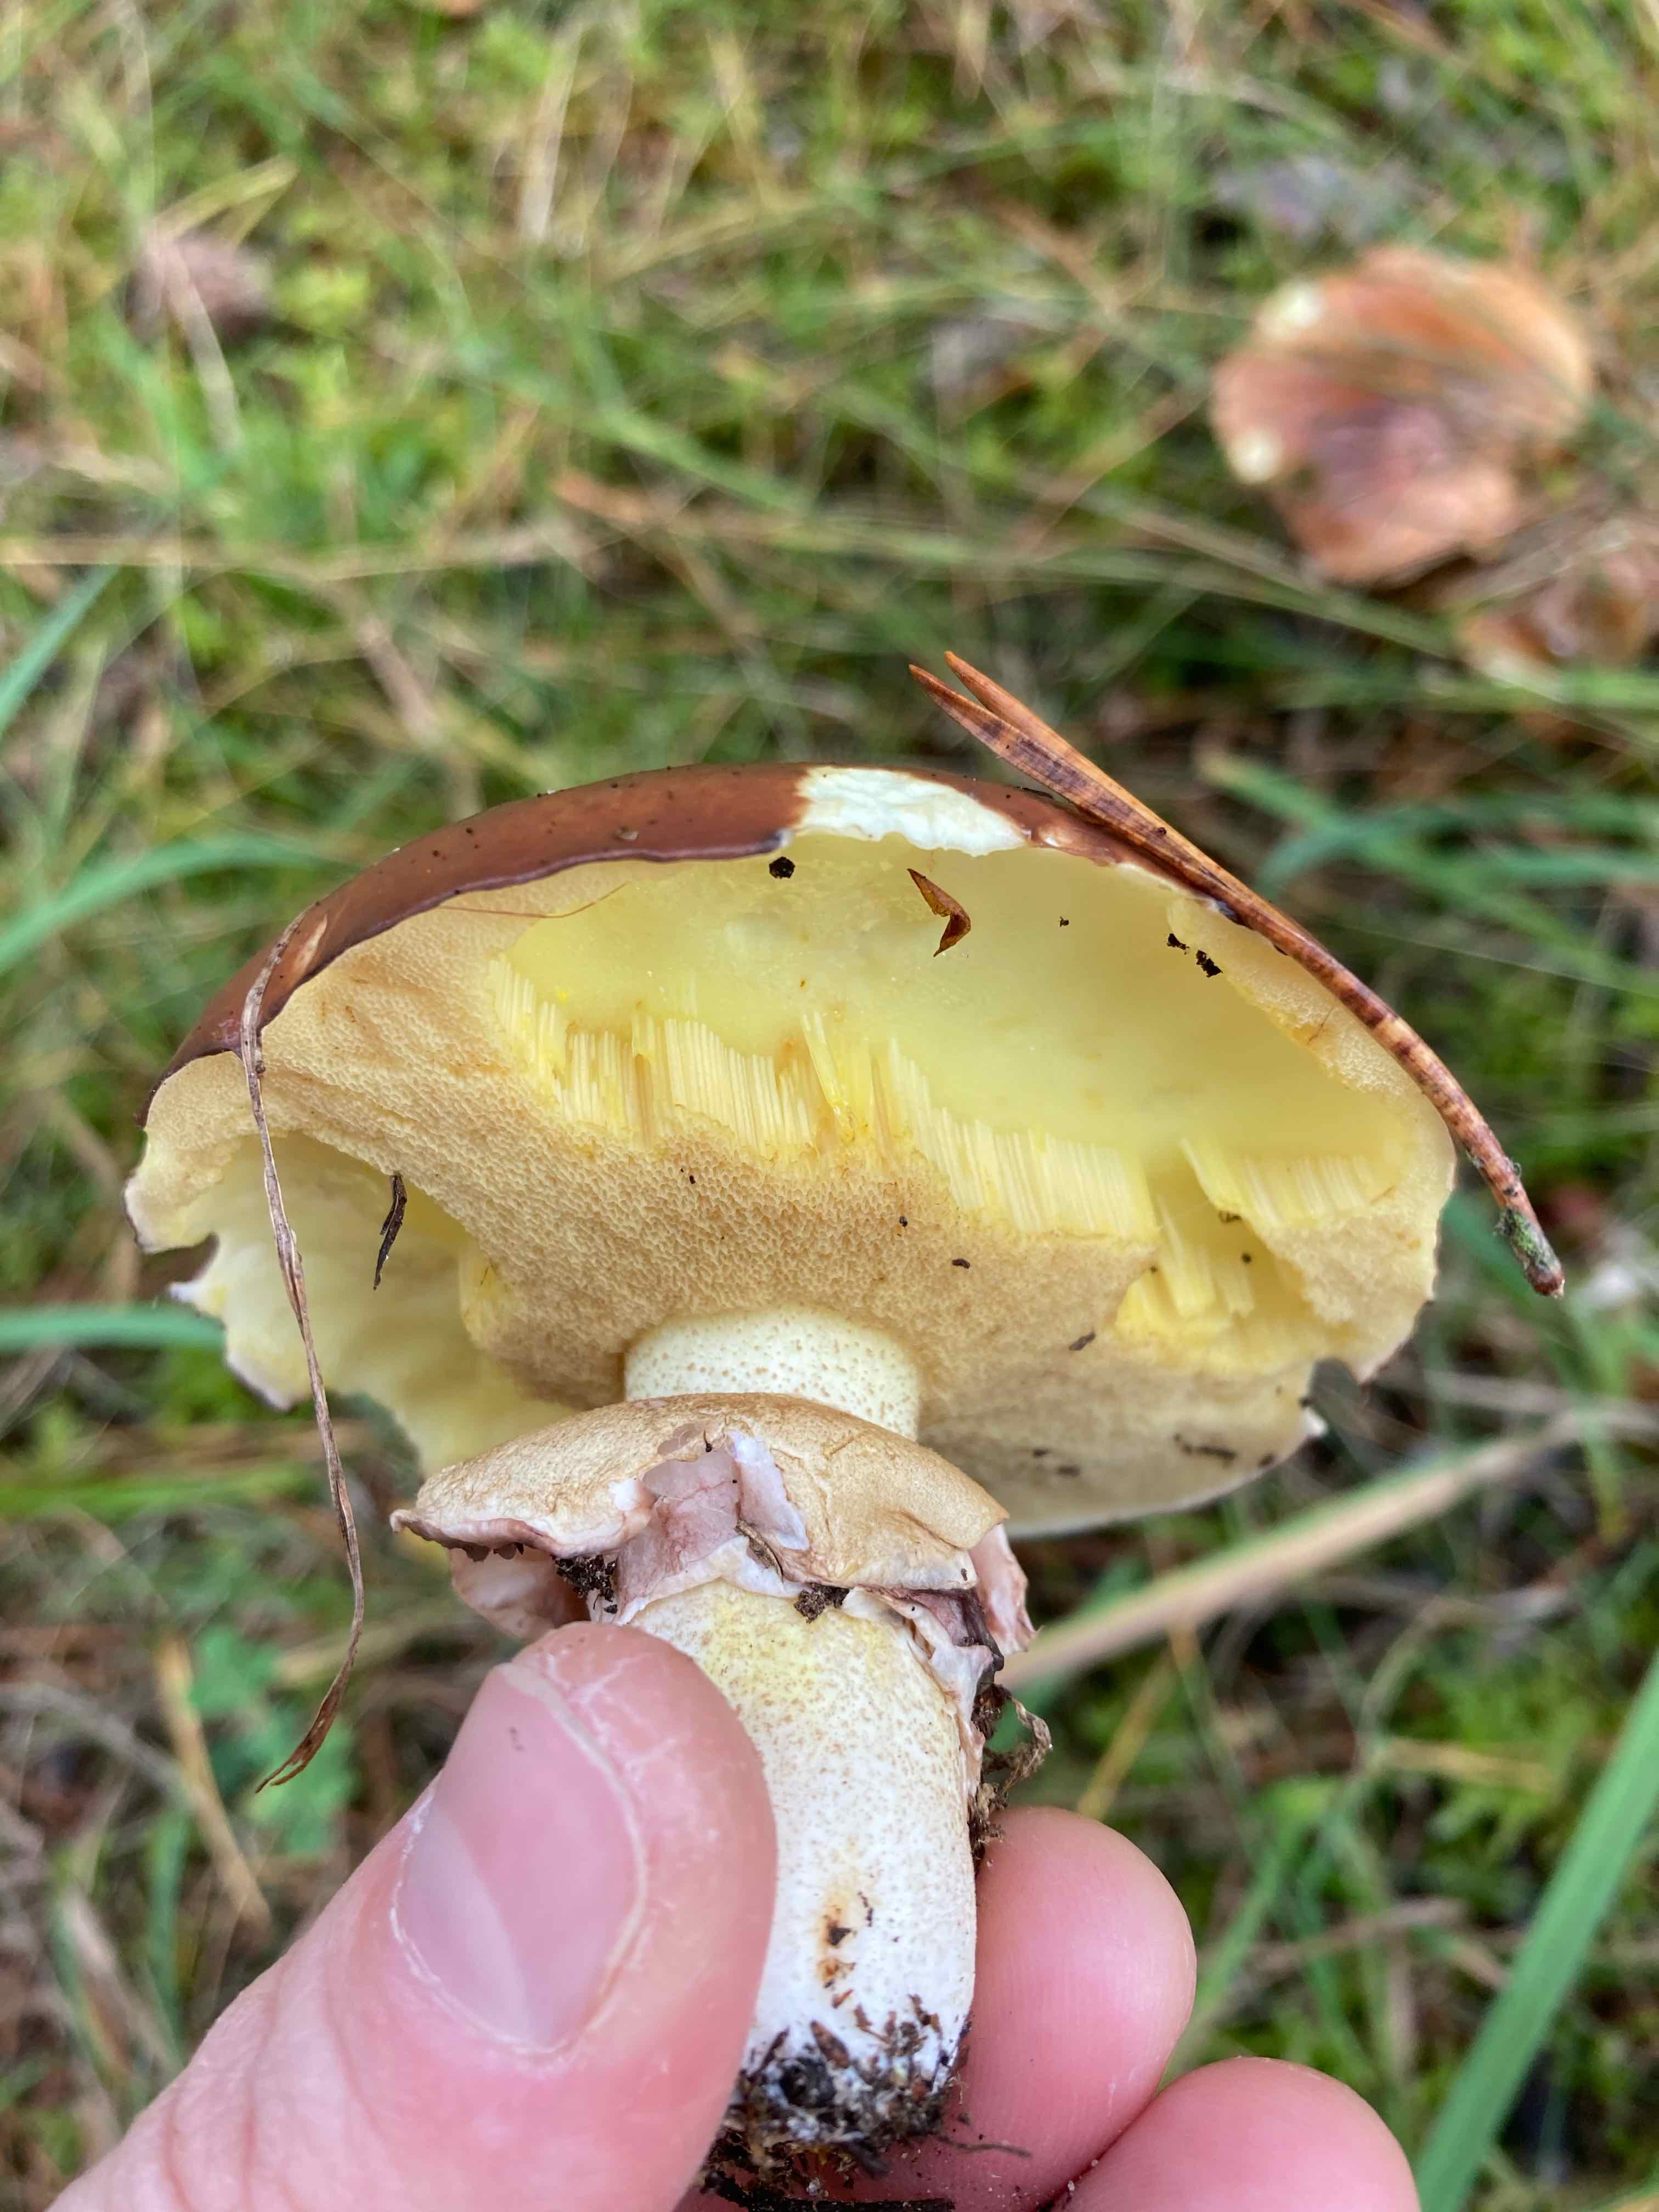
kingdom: Fungi
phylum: Basidiomycota
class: Agaricomycetes
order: Boletales
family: Suillaceae
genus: Suillus
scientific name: Suillus luteus
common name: brungul slimrørhat
